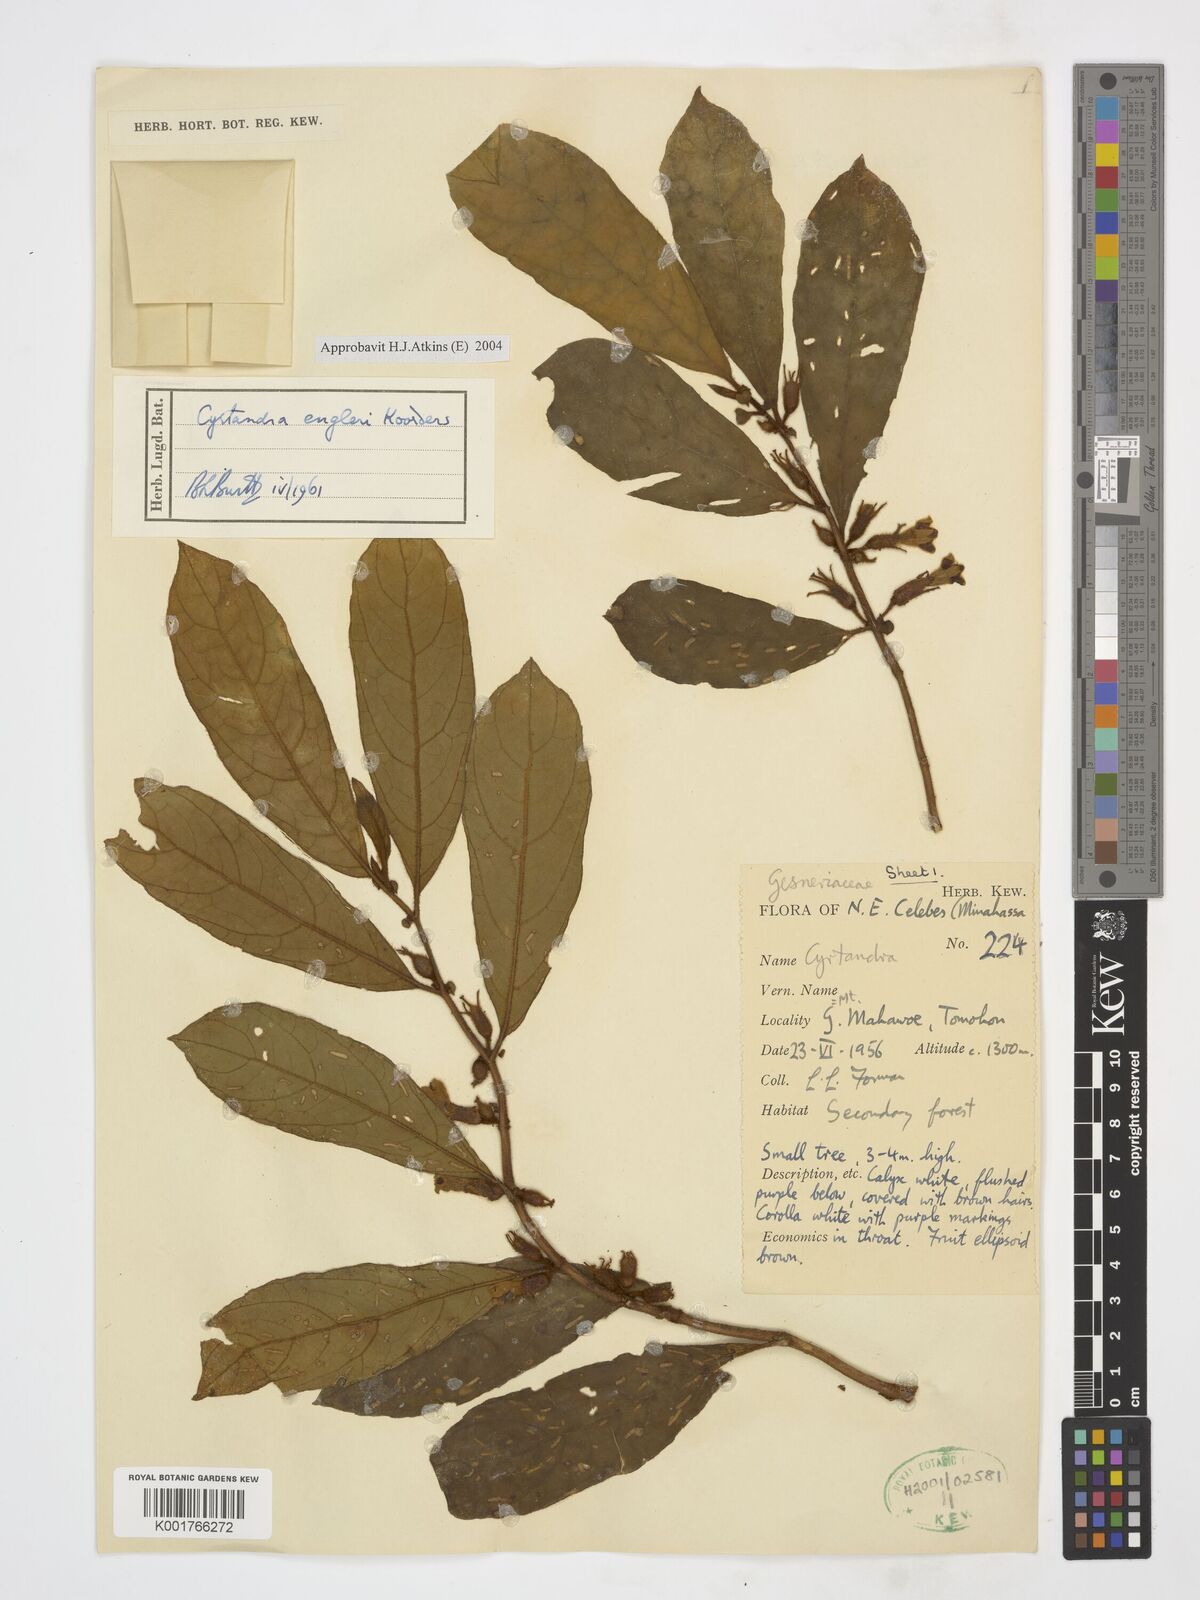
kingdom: Plantae
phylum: Tracheophyta
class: Magnoliopsida
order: Lamiales
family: Gesneriaceae
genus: Cyrtandra
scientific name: Cyrtandra engleri
